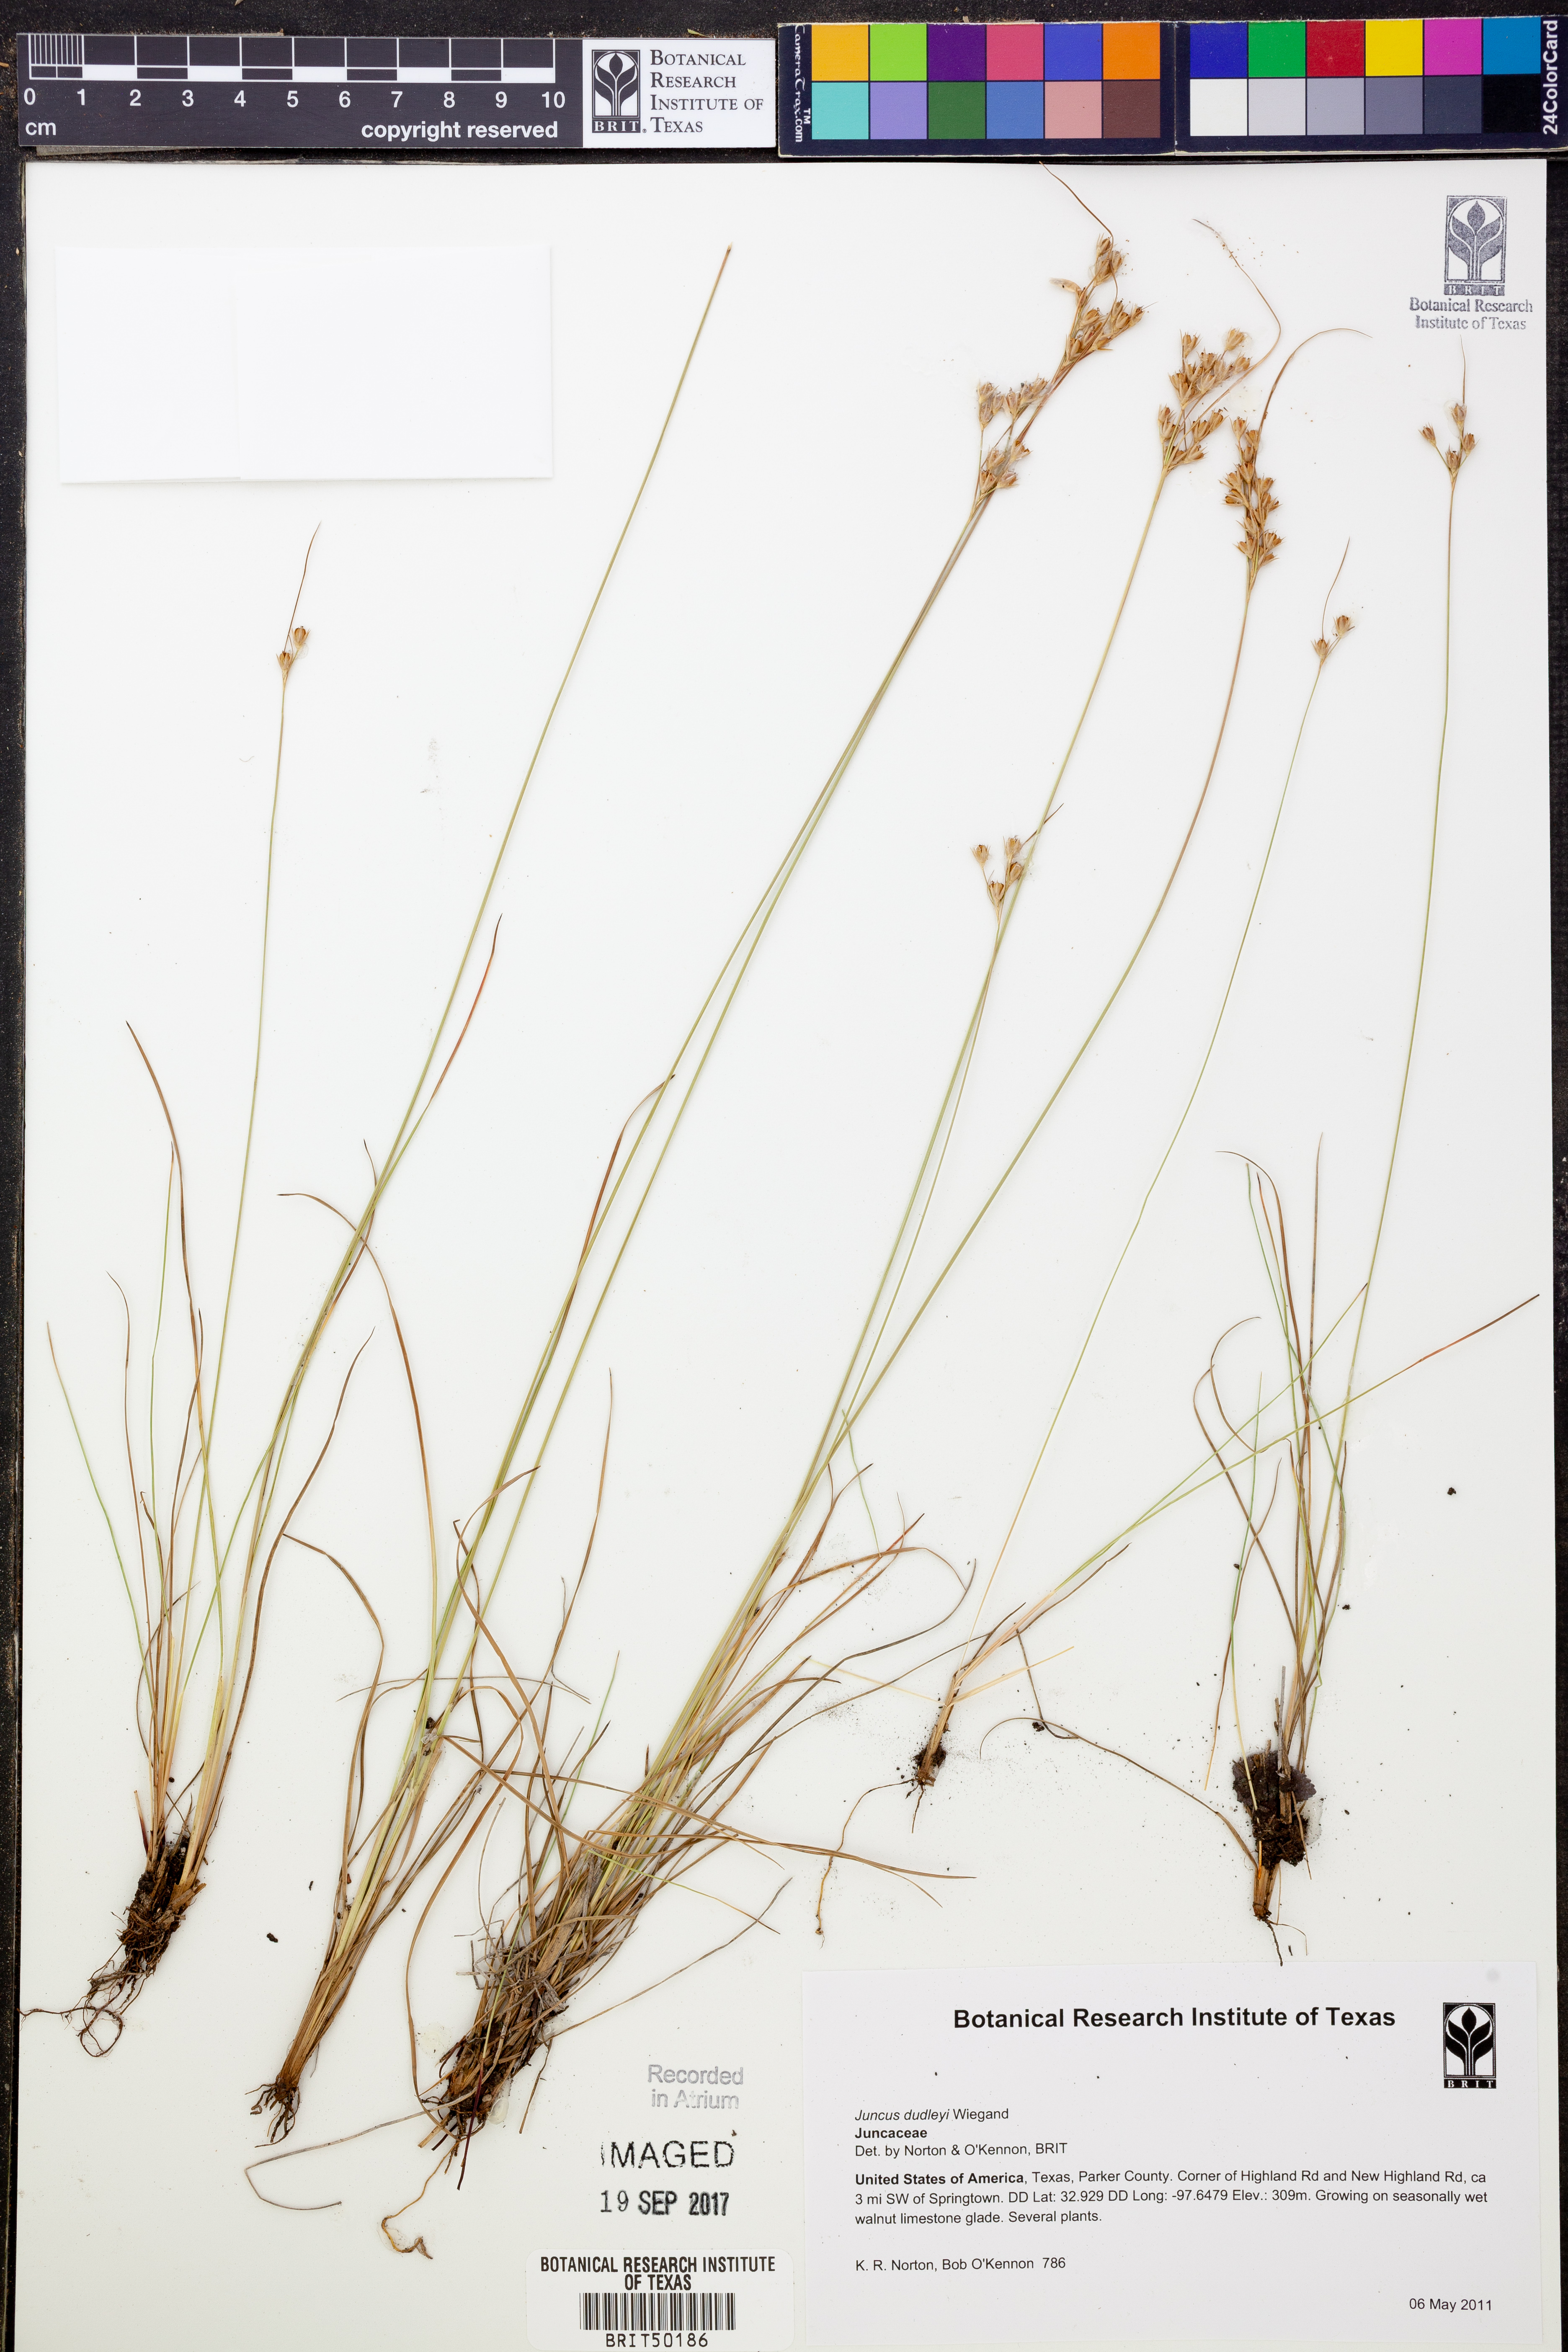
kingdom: Plantae
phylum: Tracheophyta
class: Liliopsida
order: Poales
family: Juncaceae
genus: Juncus
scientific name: Juncus dudleyi
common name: Dudley's rush
